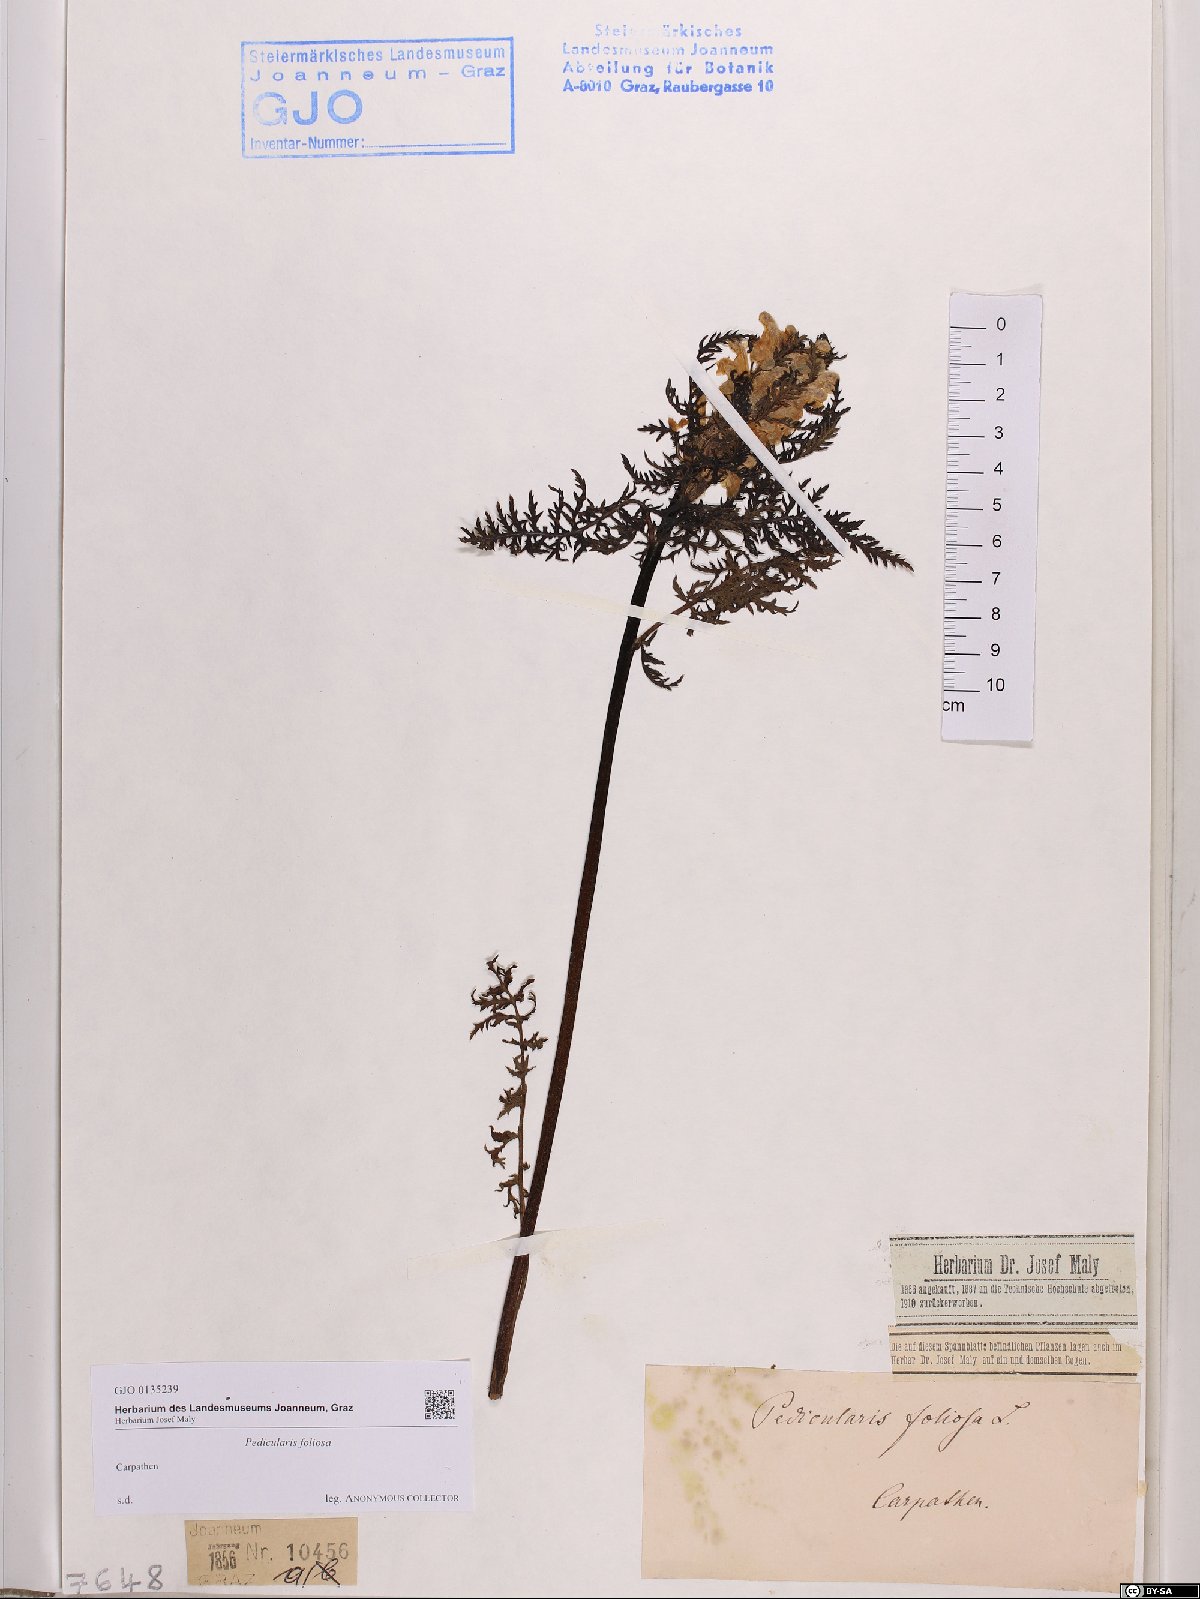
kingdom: Plantae
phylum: Tracheophyta
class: Magnoliopsida
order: Lamiales
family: Orobanchaceae
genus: Pedicularis
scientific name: Pedicularis foliosa
